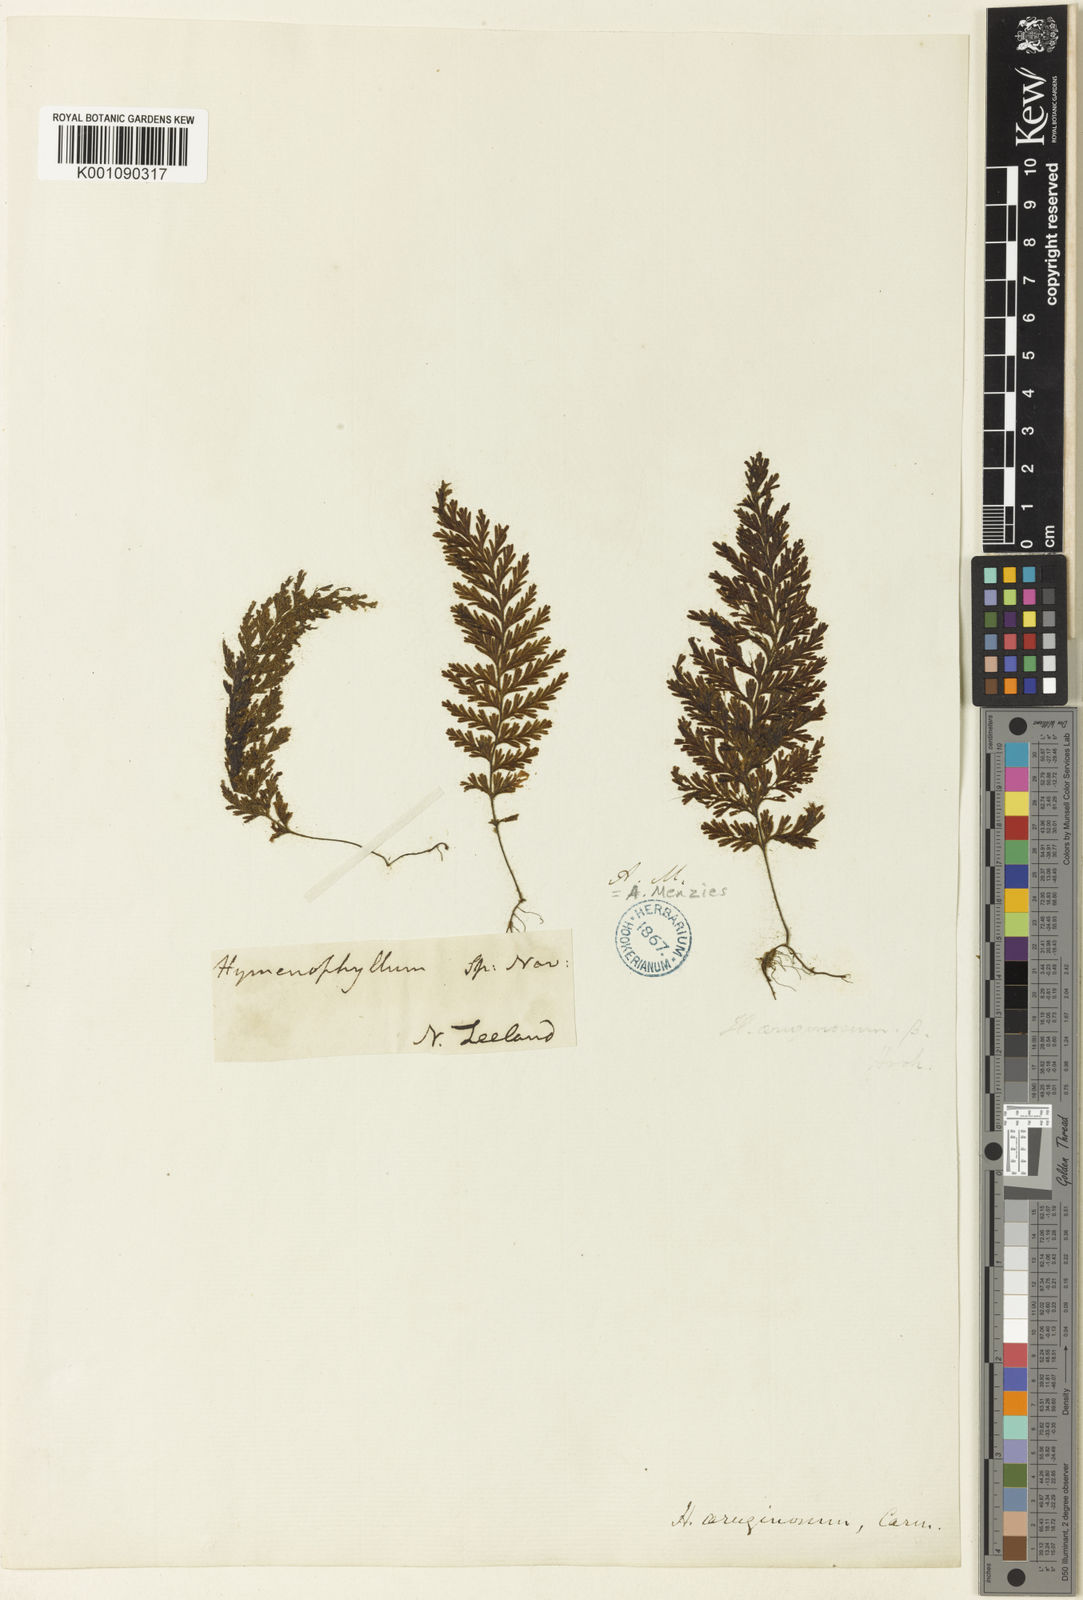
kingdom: Plantae
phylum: Tracheophyta
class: Polypodiopsida
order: Hymenophyllales
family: Hymenophyllaceae
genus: Hymenophyllum
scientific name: Hymenophyllum ferrugineum
